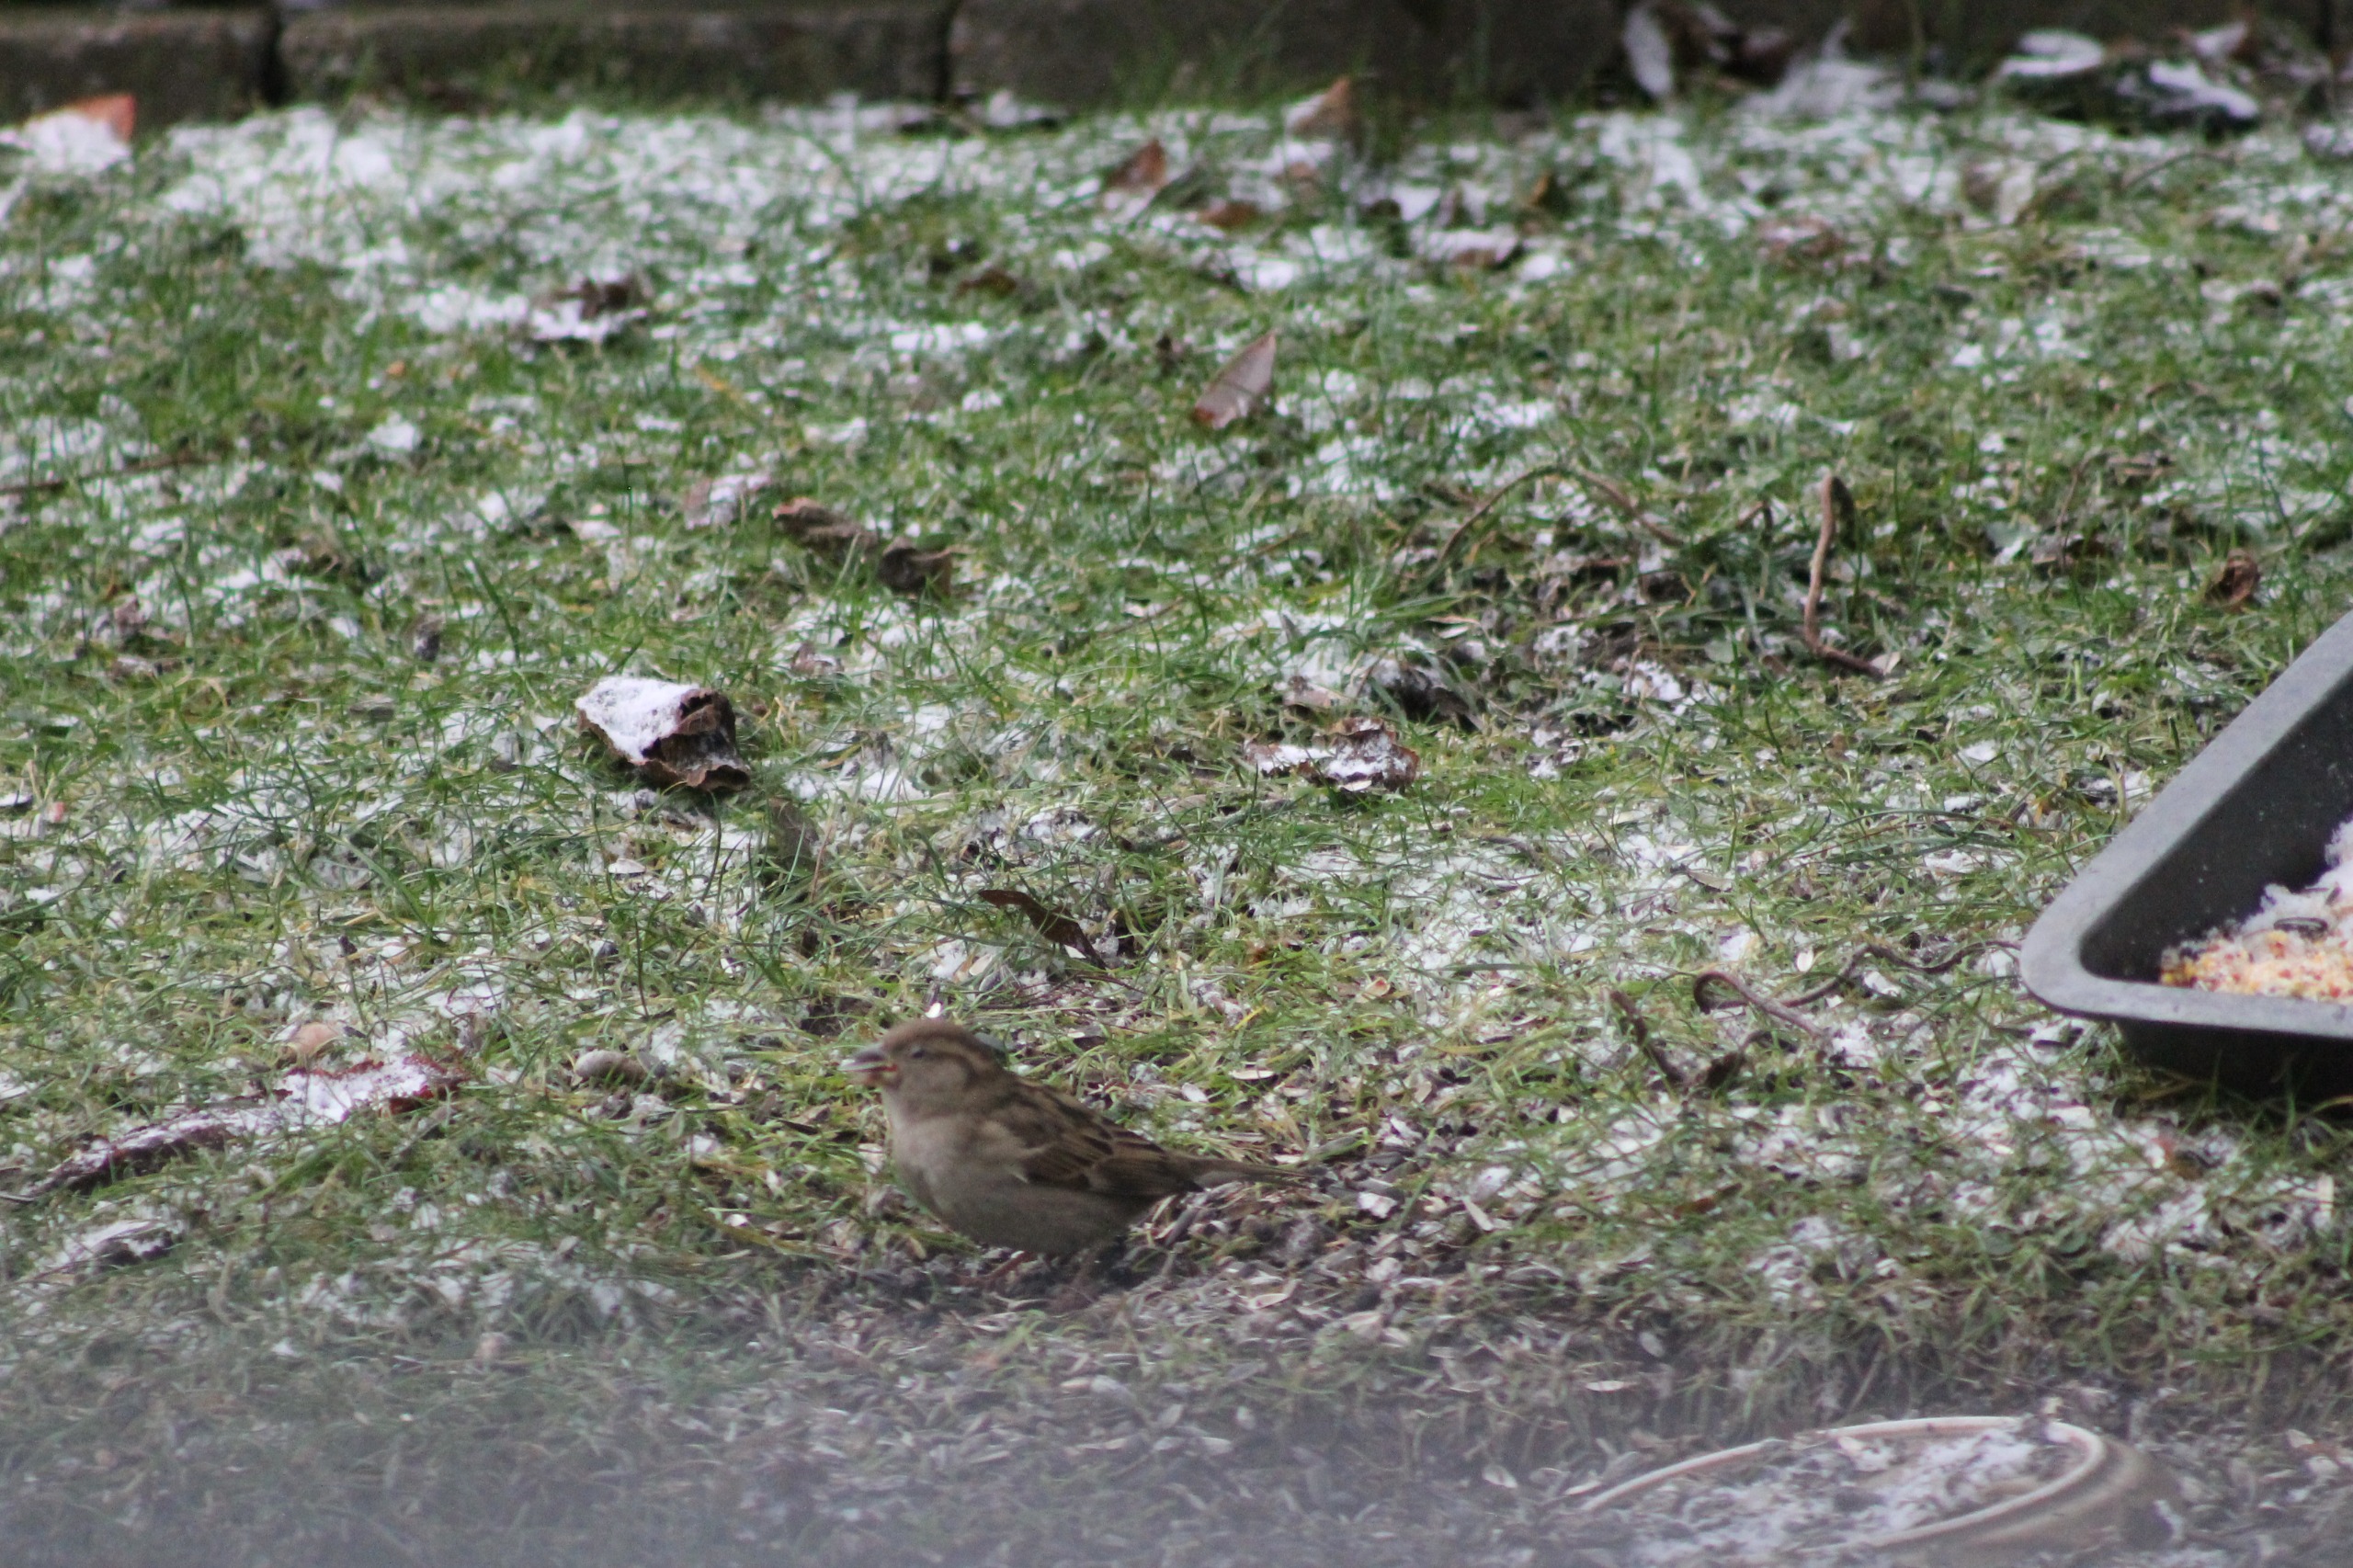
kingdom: Animalia
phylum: Chordata
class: Aves
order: Passeriformes
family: Passeridae
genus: Passer
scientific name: Passer domesticus
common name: Gråspurv
